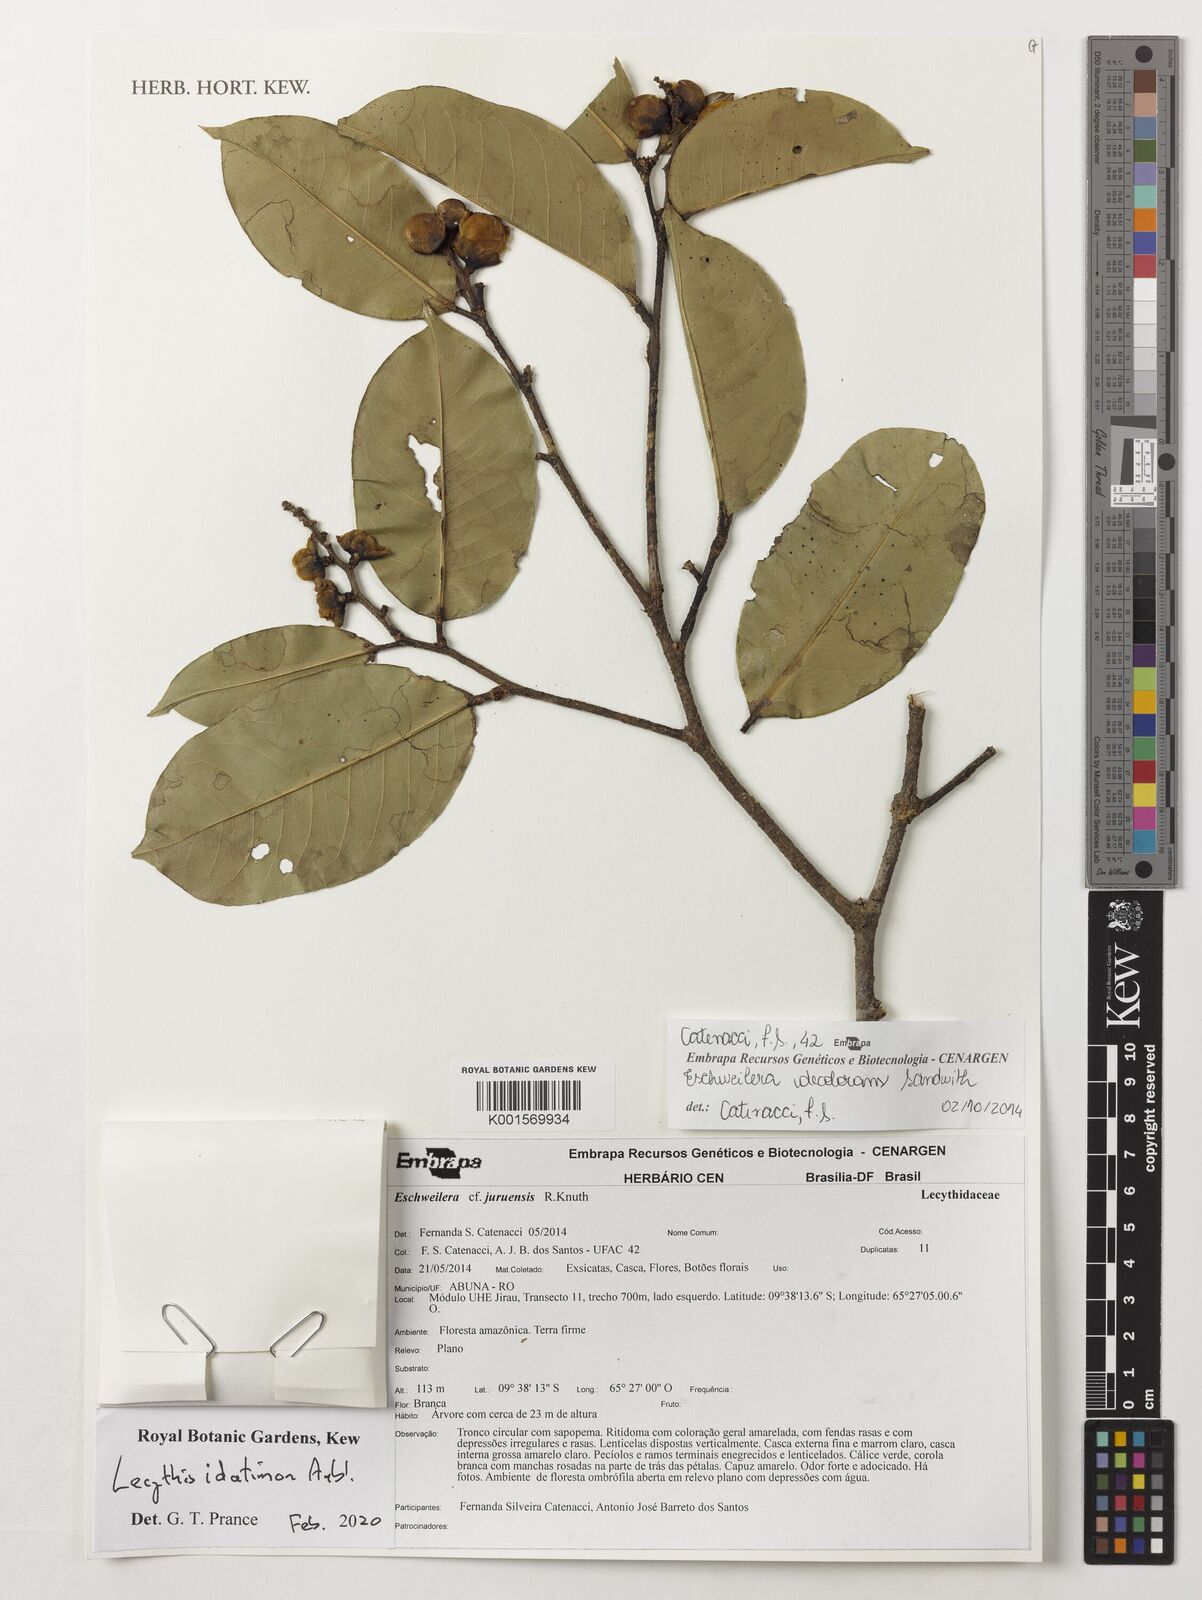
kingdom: Plantae
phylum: Tracheophyta
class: Magnoliopsida
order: Ericales
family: Lecythidaceae
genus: Lecythis
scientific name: Lecythis idatimon
